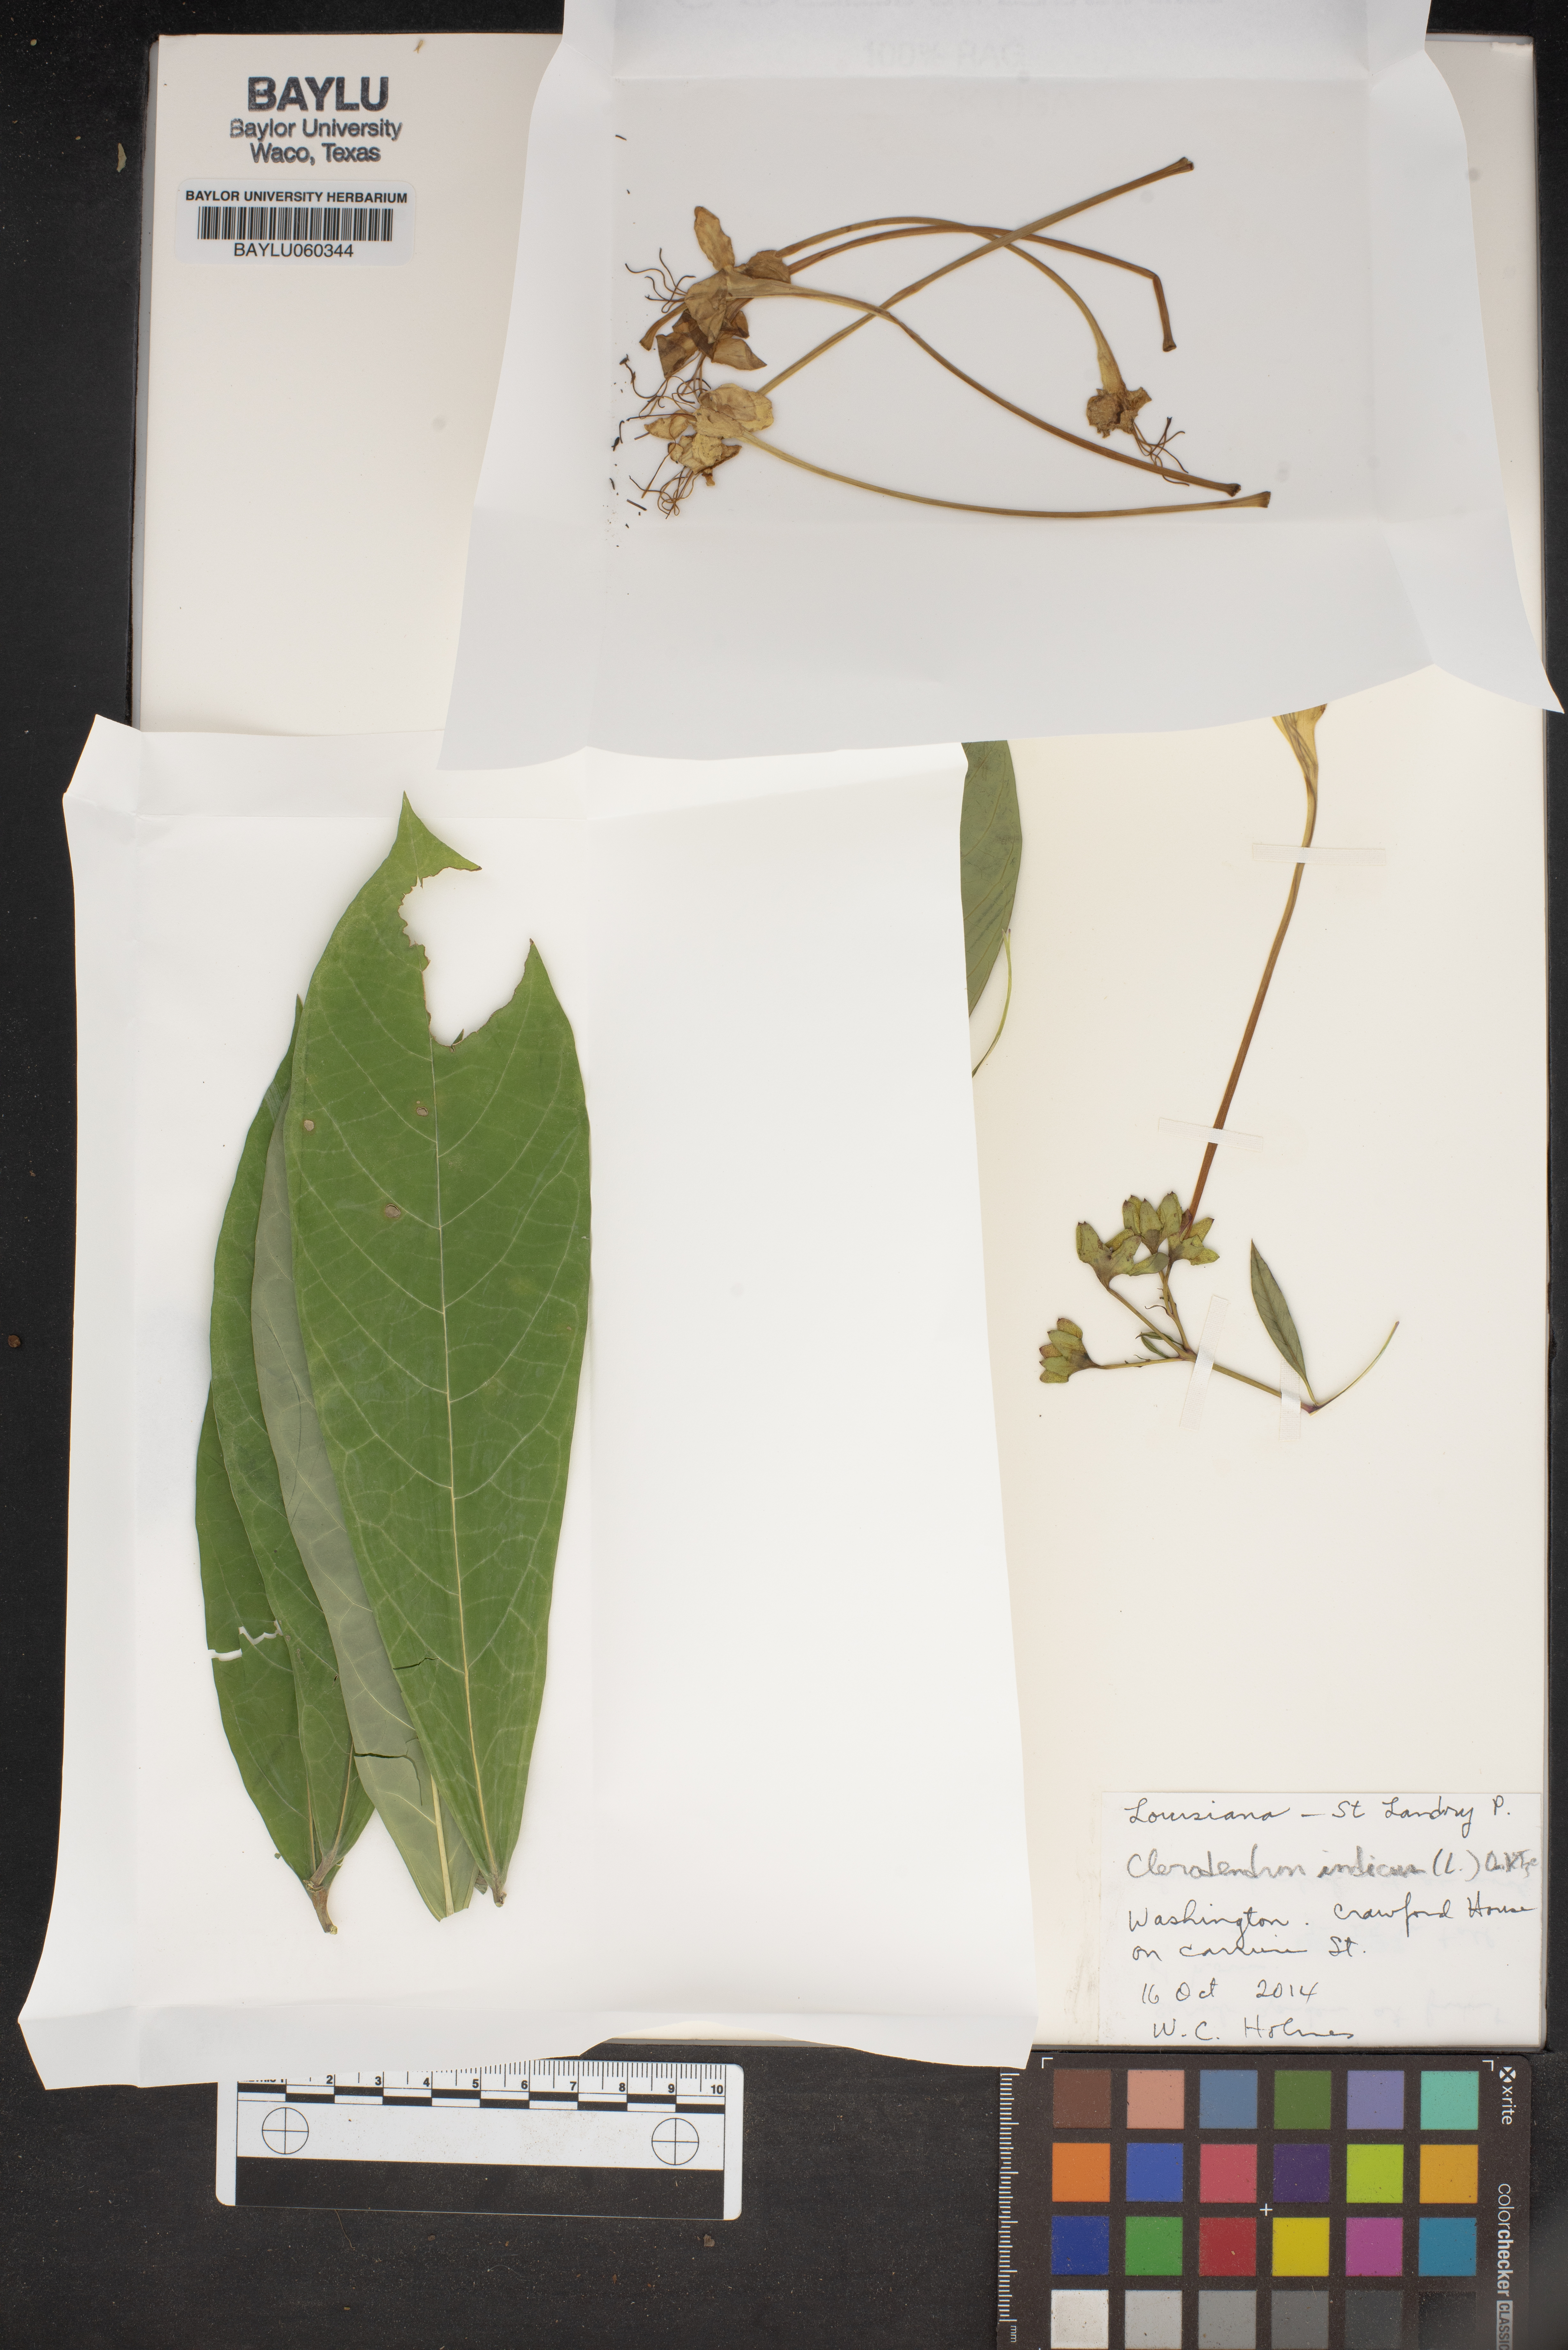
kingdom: Plantae
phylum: Tracheophyta
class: Magnoliopsida
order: Lamiales
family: Lamiaceae
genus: Clerodendrum
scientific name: Clerodendrum
